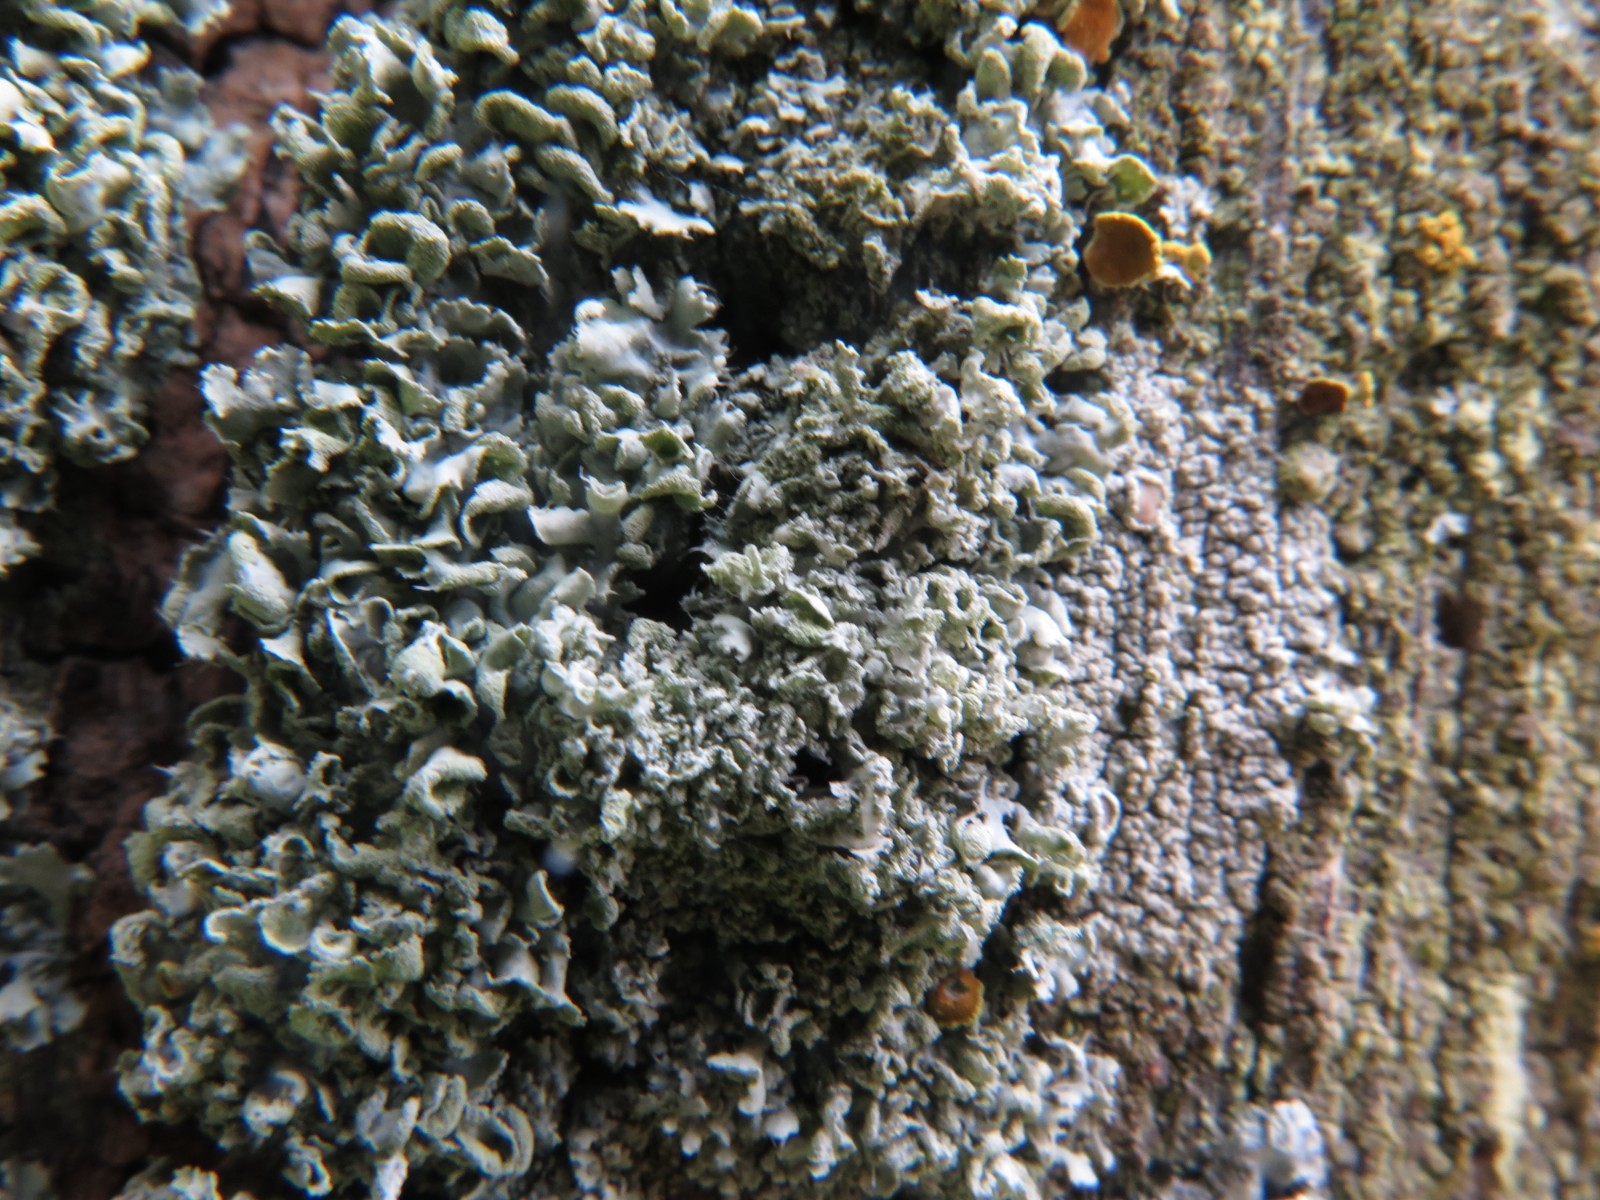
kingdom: Fungi
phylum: Ascomycota
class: Lecanoromycetes
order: Caliciales
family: Physciaceae
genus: Physcia
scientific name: Physcia adscendens
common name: hætte-rosetlav
